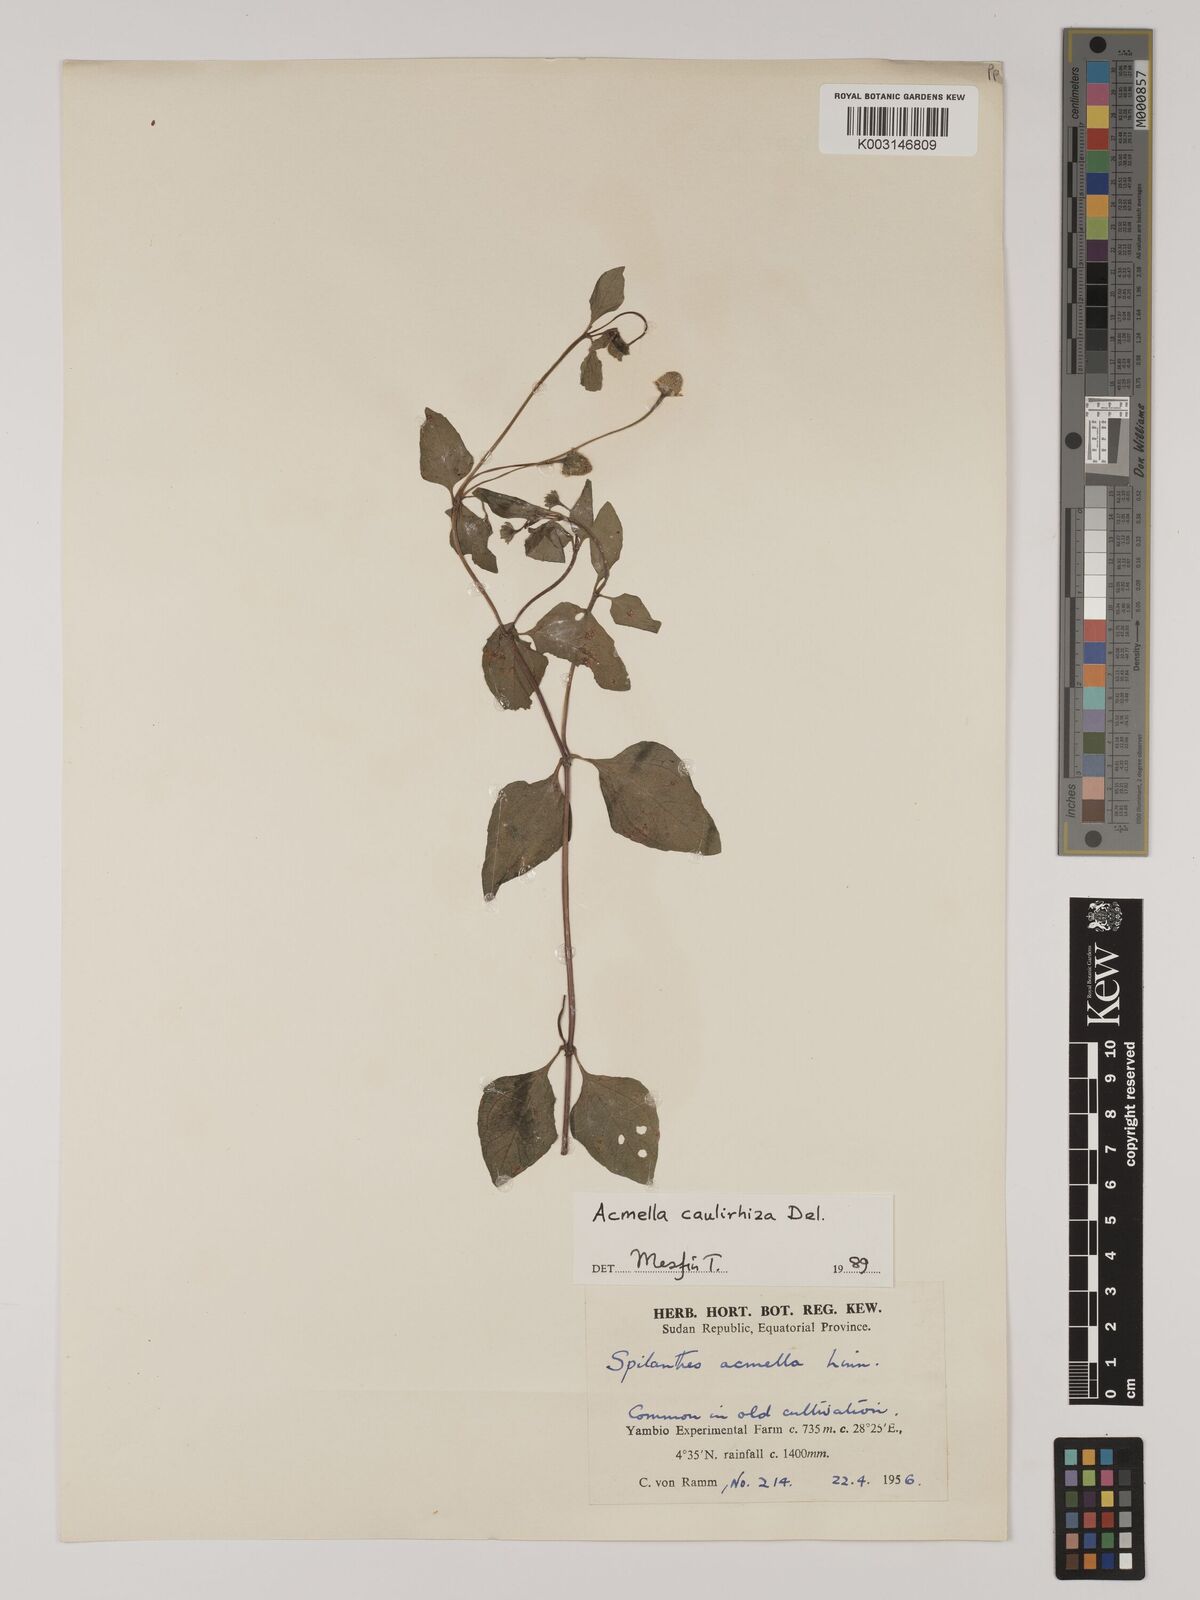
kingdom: Plantae
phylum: Tracheophyta
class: Magnoliopsida
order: Asterales
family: Asteraceae
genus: Blainvillea
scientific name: Blainvillea acmella
